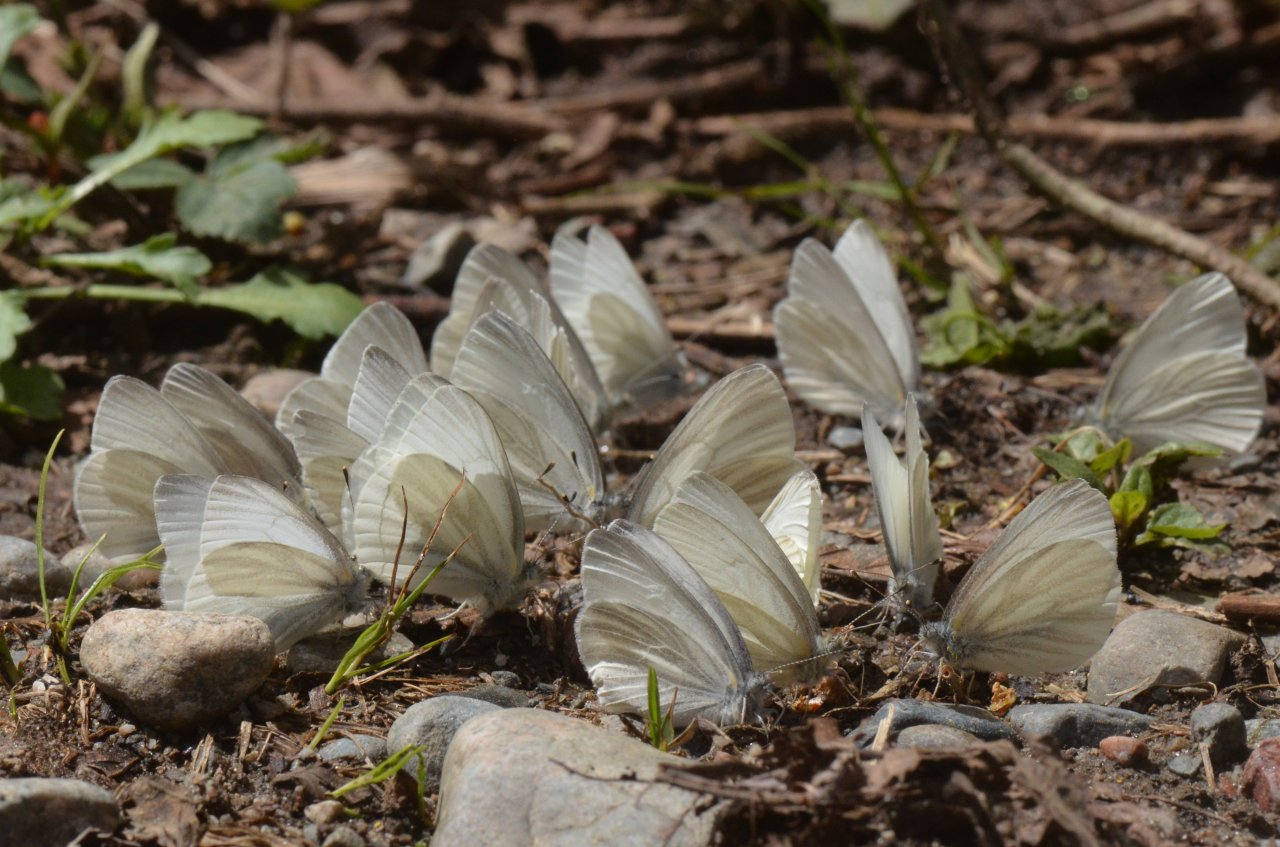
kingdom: Animalia
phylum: Arthropoda
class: Insecta
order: Lepidoptera
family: Pieridae
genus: Pieris
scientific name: Pieris virginiensis
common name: West Virginia White
